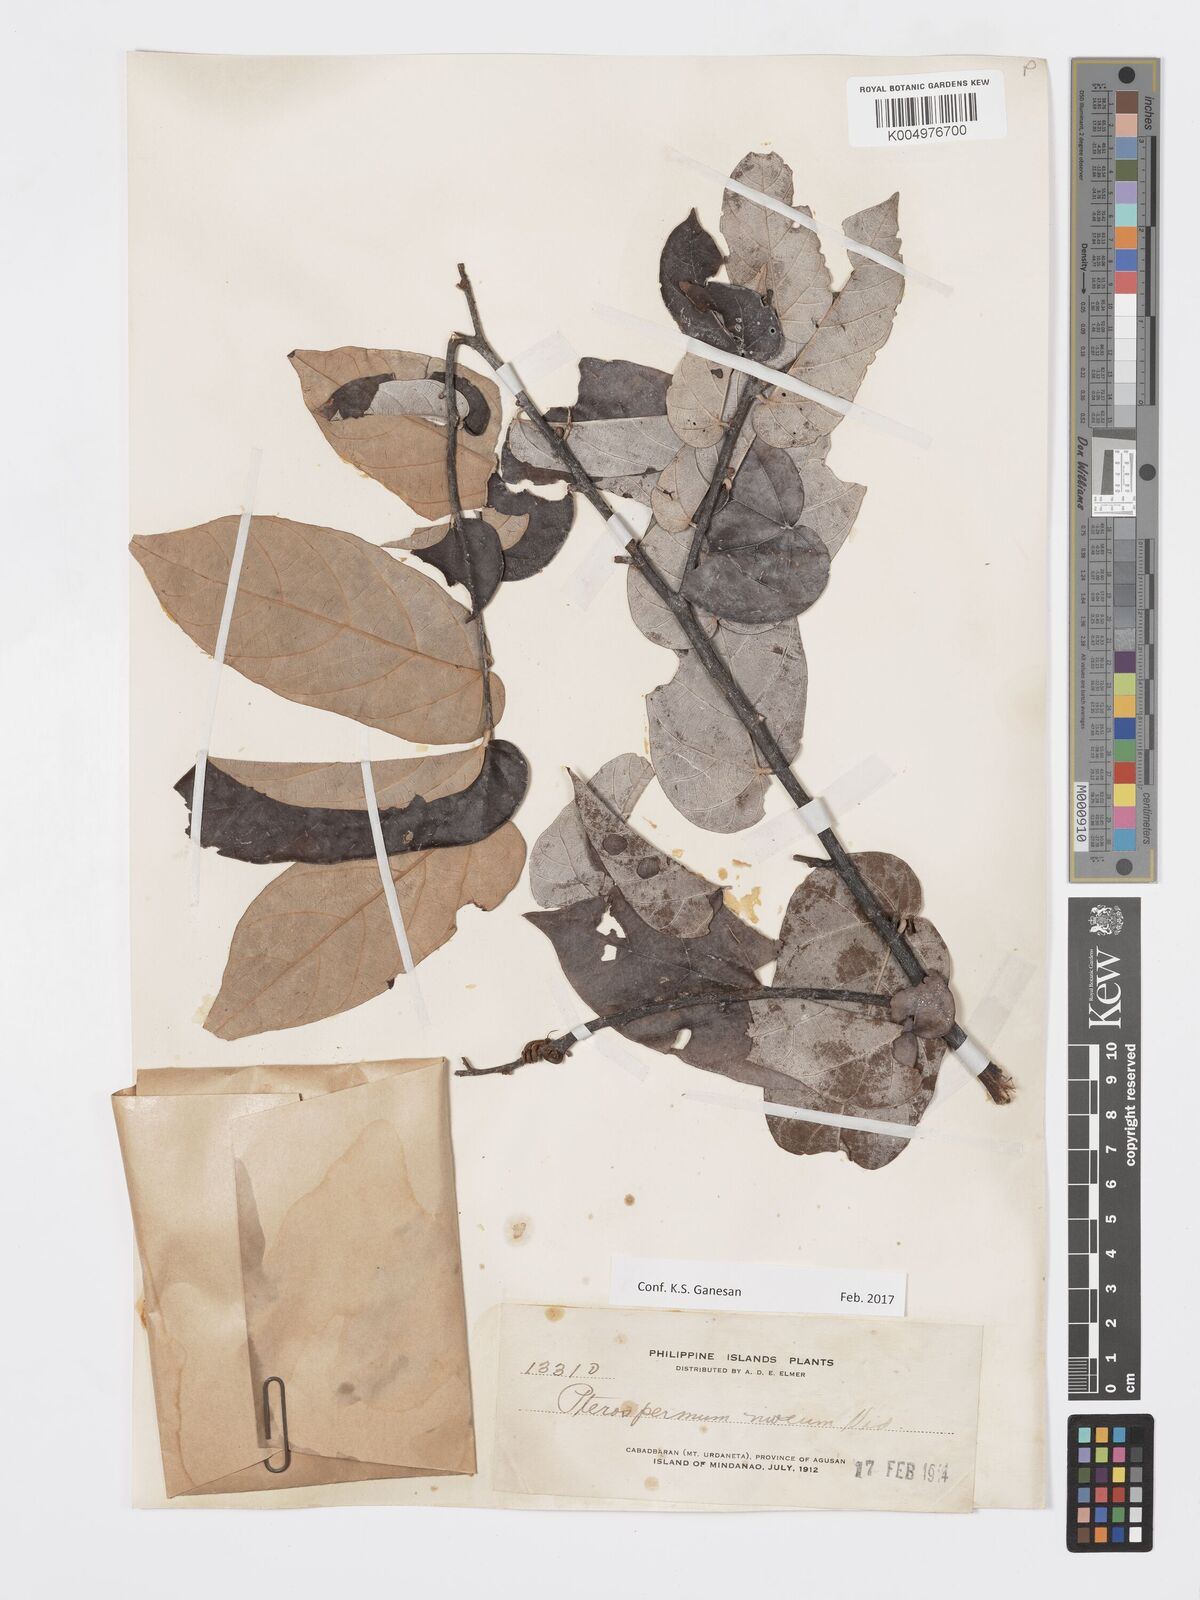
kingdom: Plantae
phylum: Tracheophyta
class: Magnoliopsida
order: Malvales
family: Malvaceae
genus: Pterospermum
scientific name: Pterospermum niveum
